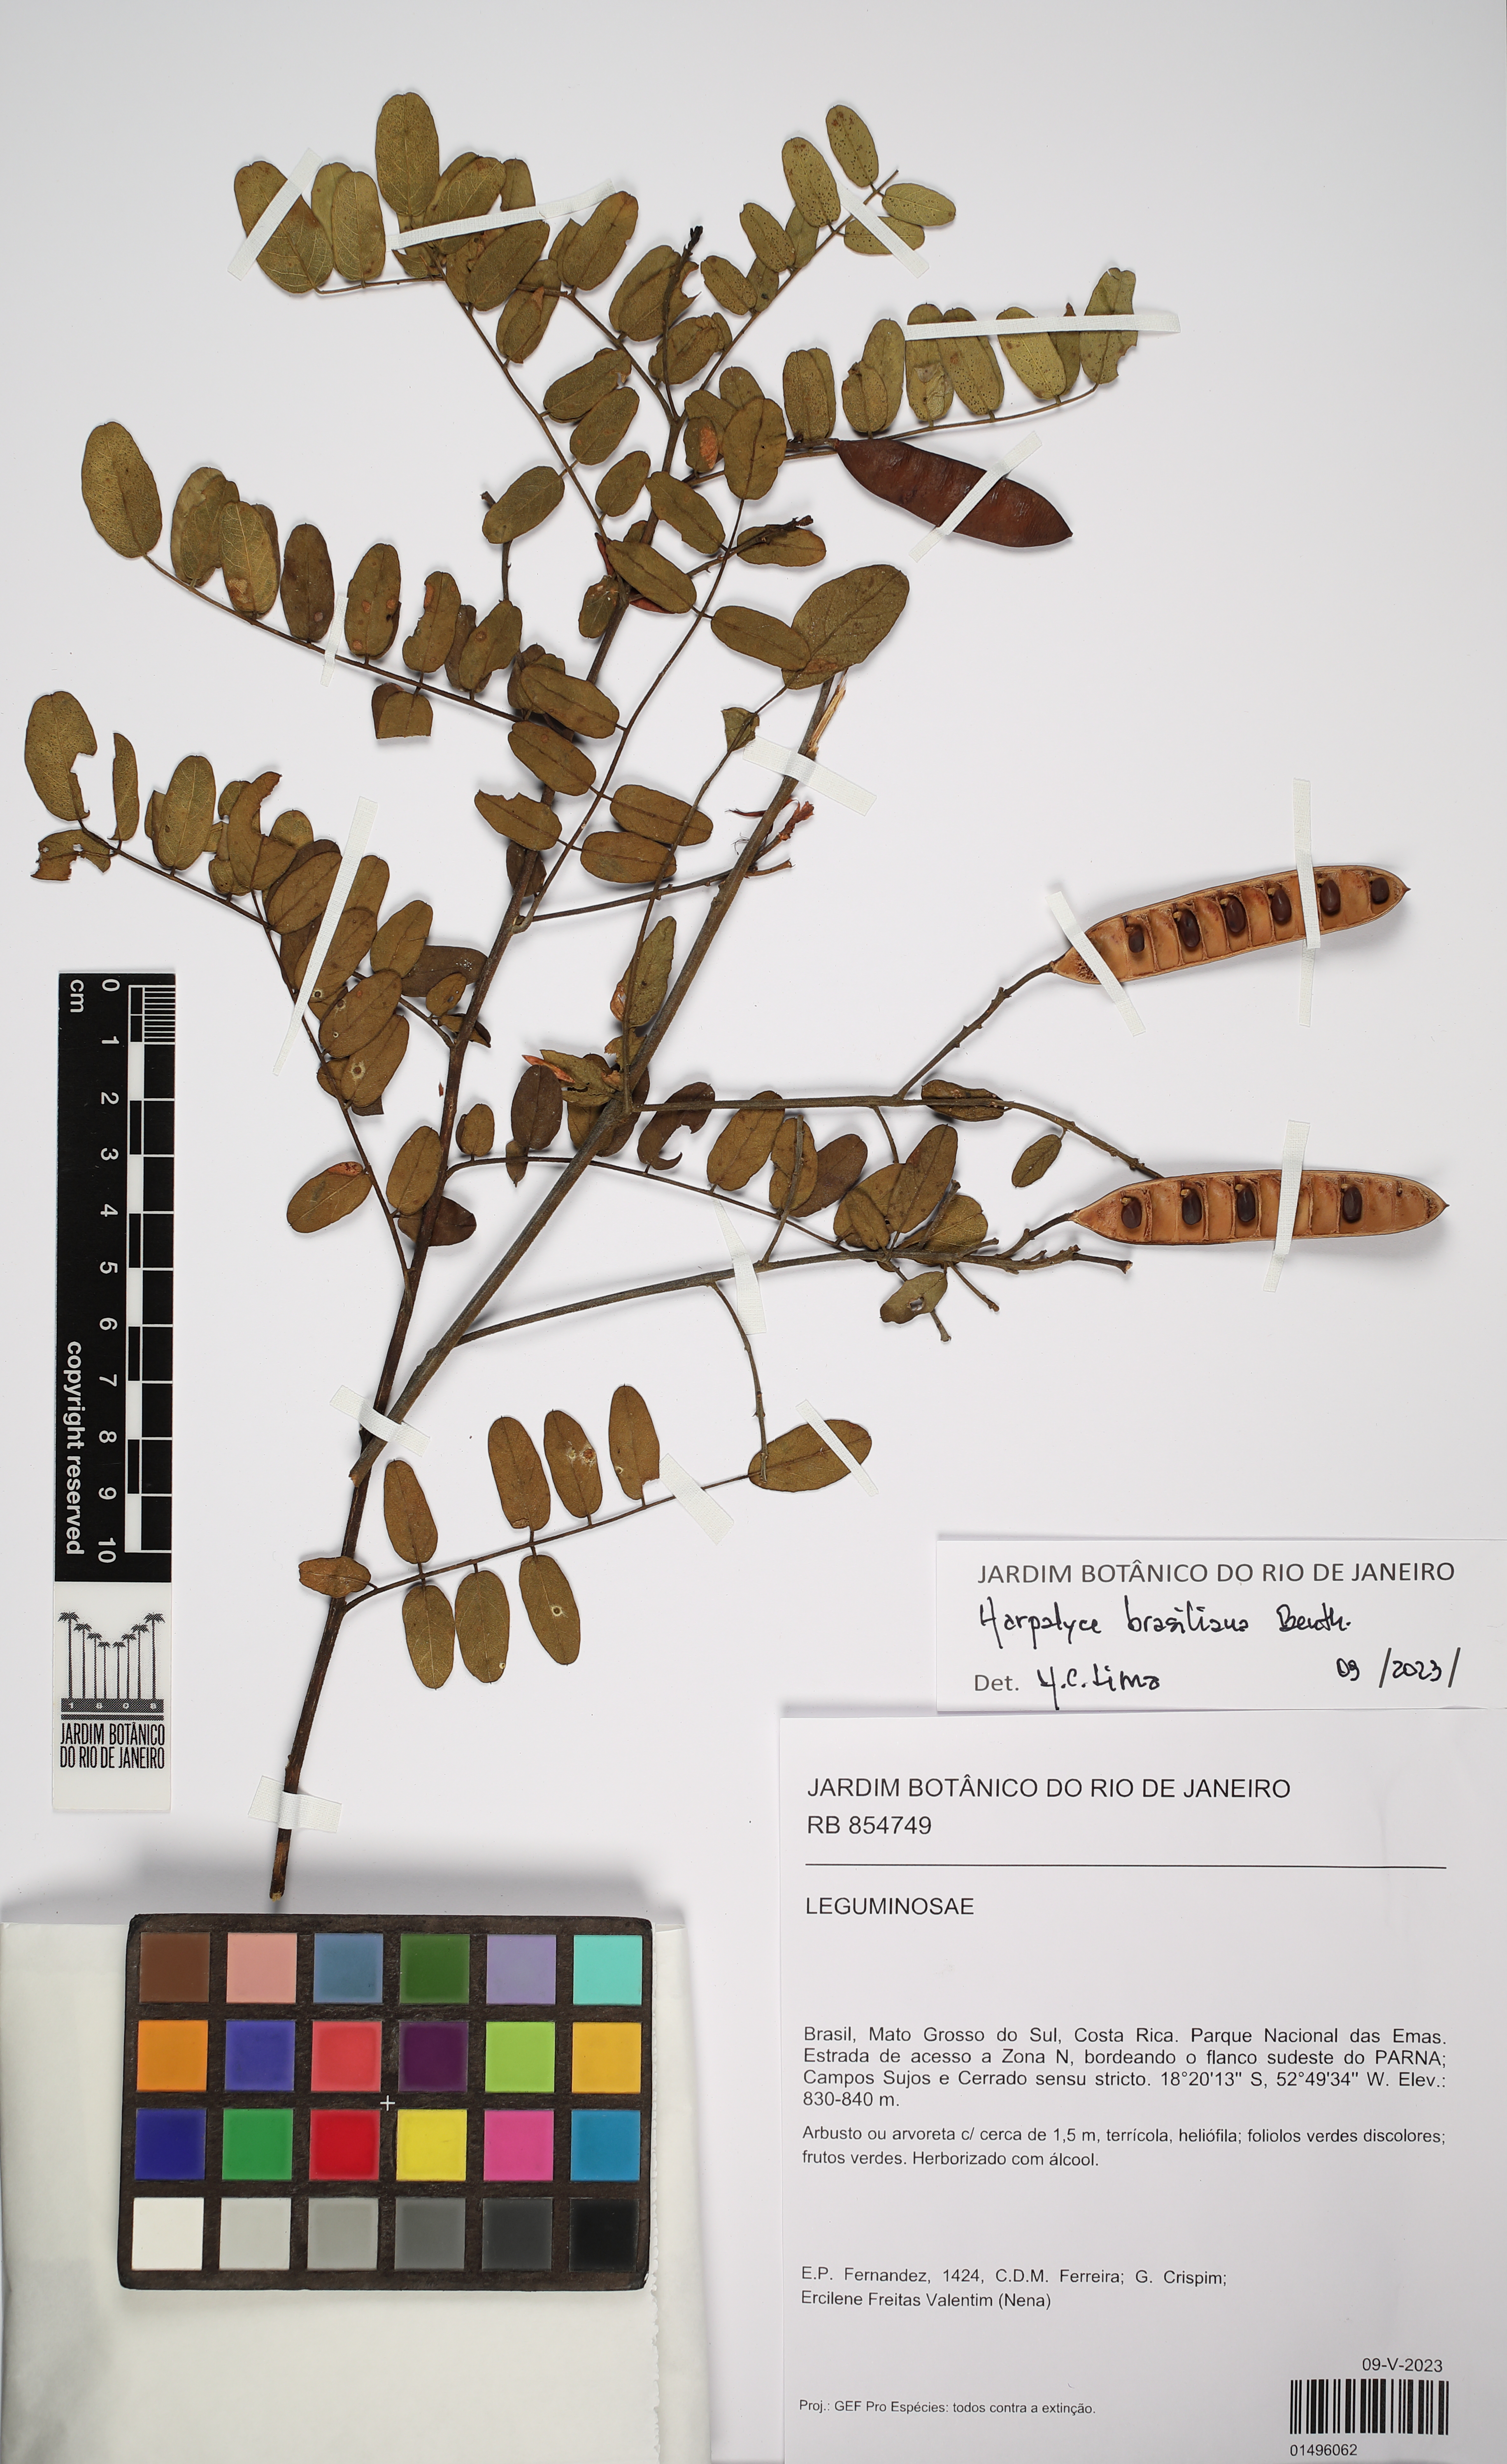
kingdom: Plantae
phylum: Tracheophyta
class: Magnoliopsida
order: Fabales
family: Fabaceae
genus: Harpalyce
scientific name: Harpalyce brasiliana
